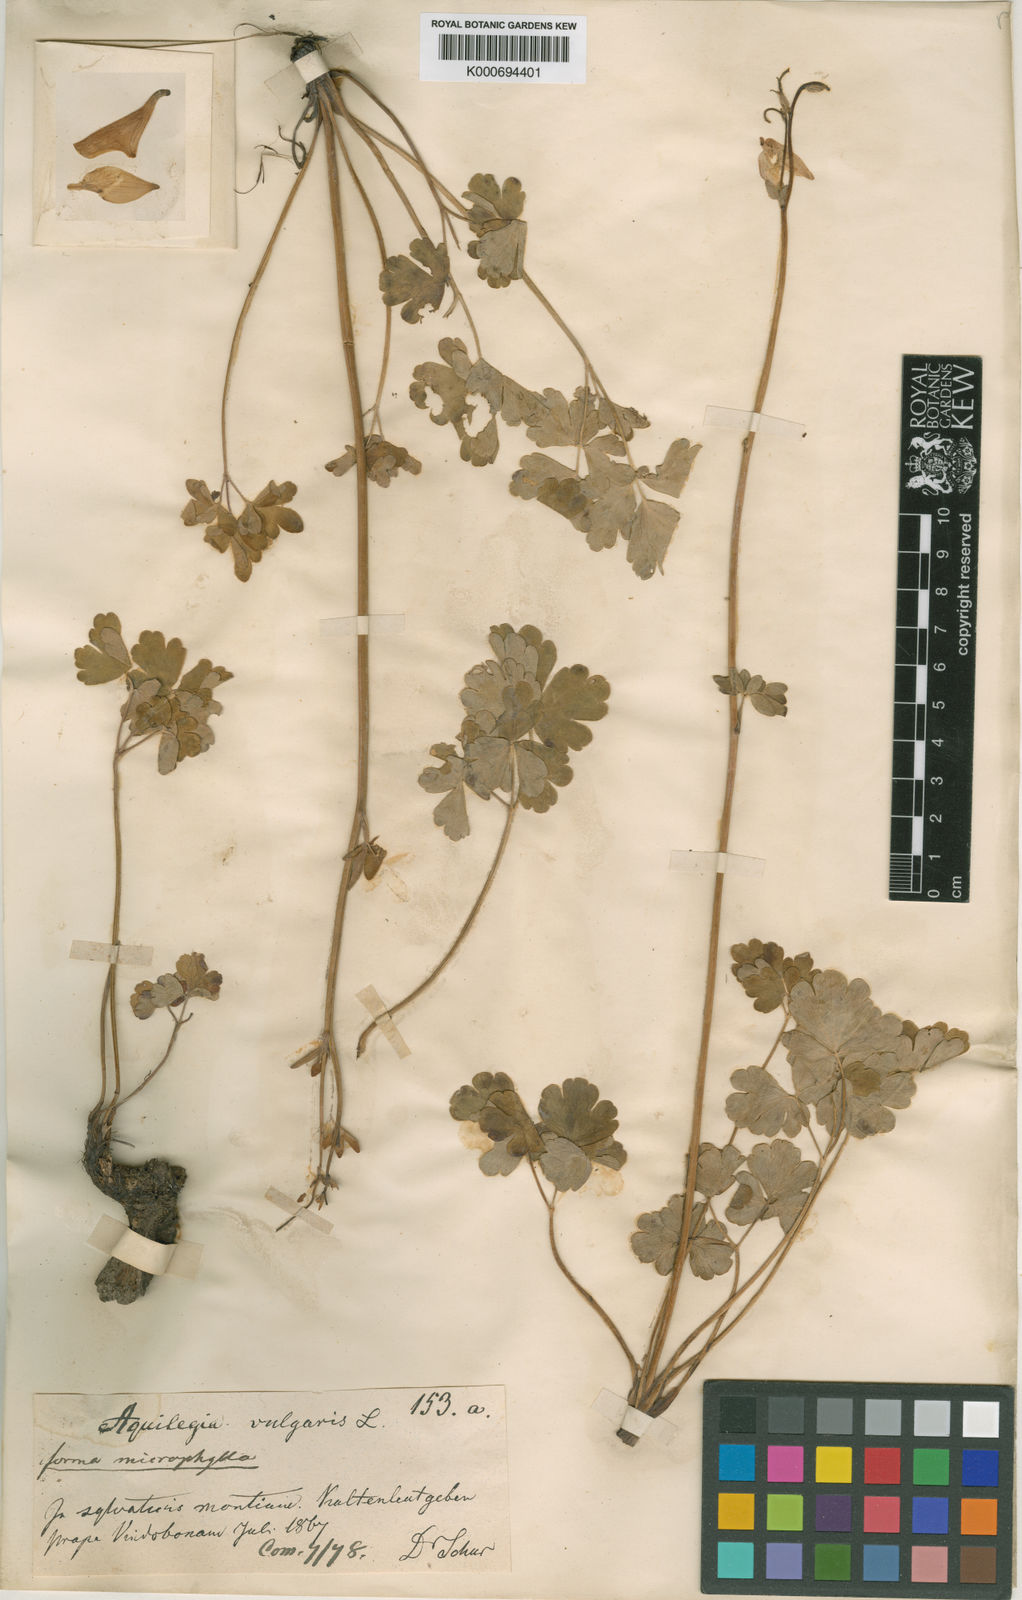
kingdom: Plantae
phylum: Tracheophyta
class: Magnoliopsida
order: Ranunculales
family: Ranunculaceae
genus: Aquilegia
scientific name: Aquilegia vulgaris
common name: Columbine
